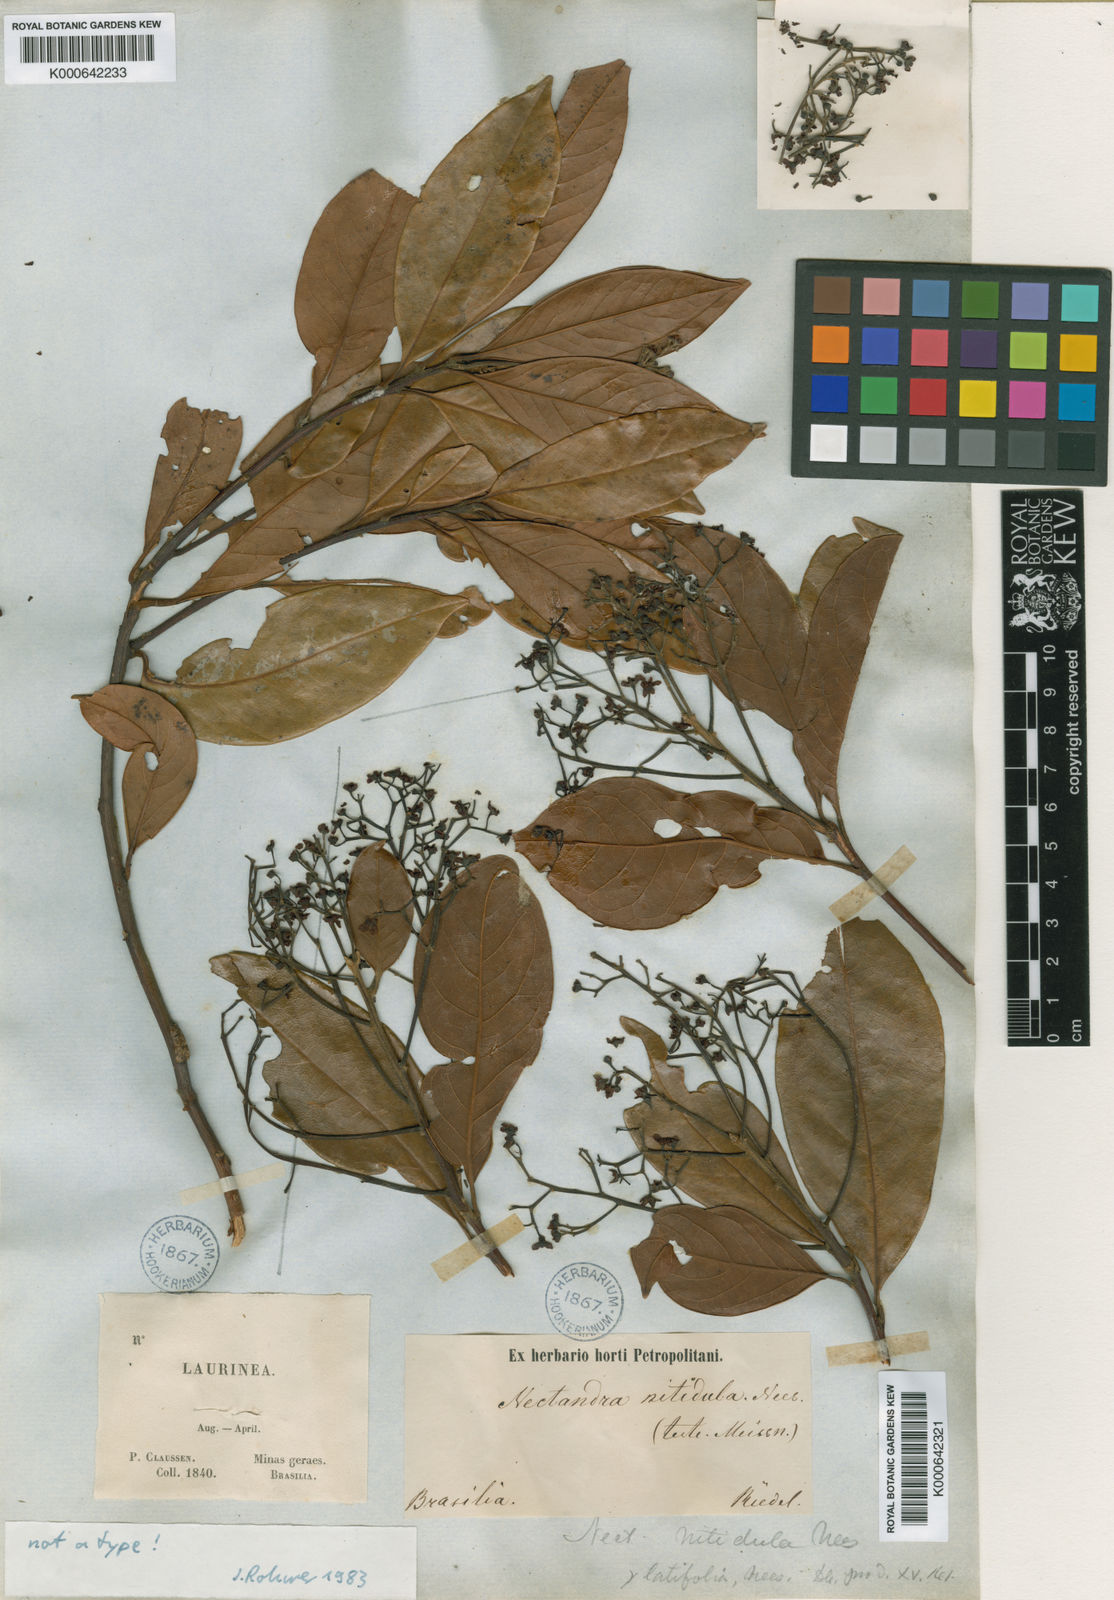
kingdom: Plantae
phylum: Tracheophyta
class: Magnoliopsida
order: Laurales
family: Lauraceae
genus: Nectandra
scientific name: Nectandra nitidula
